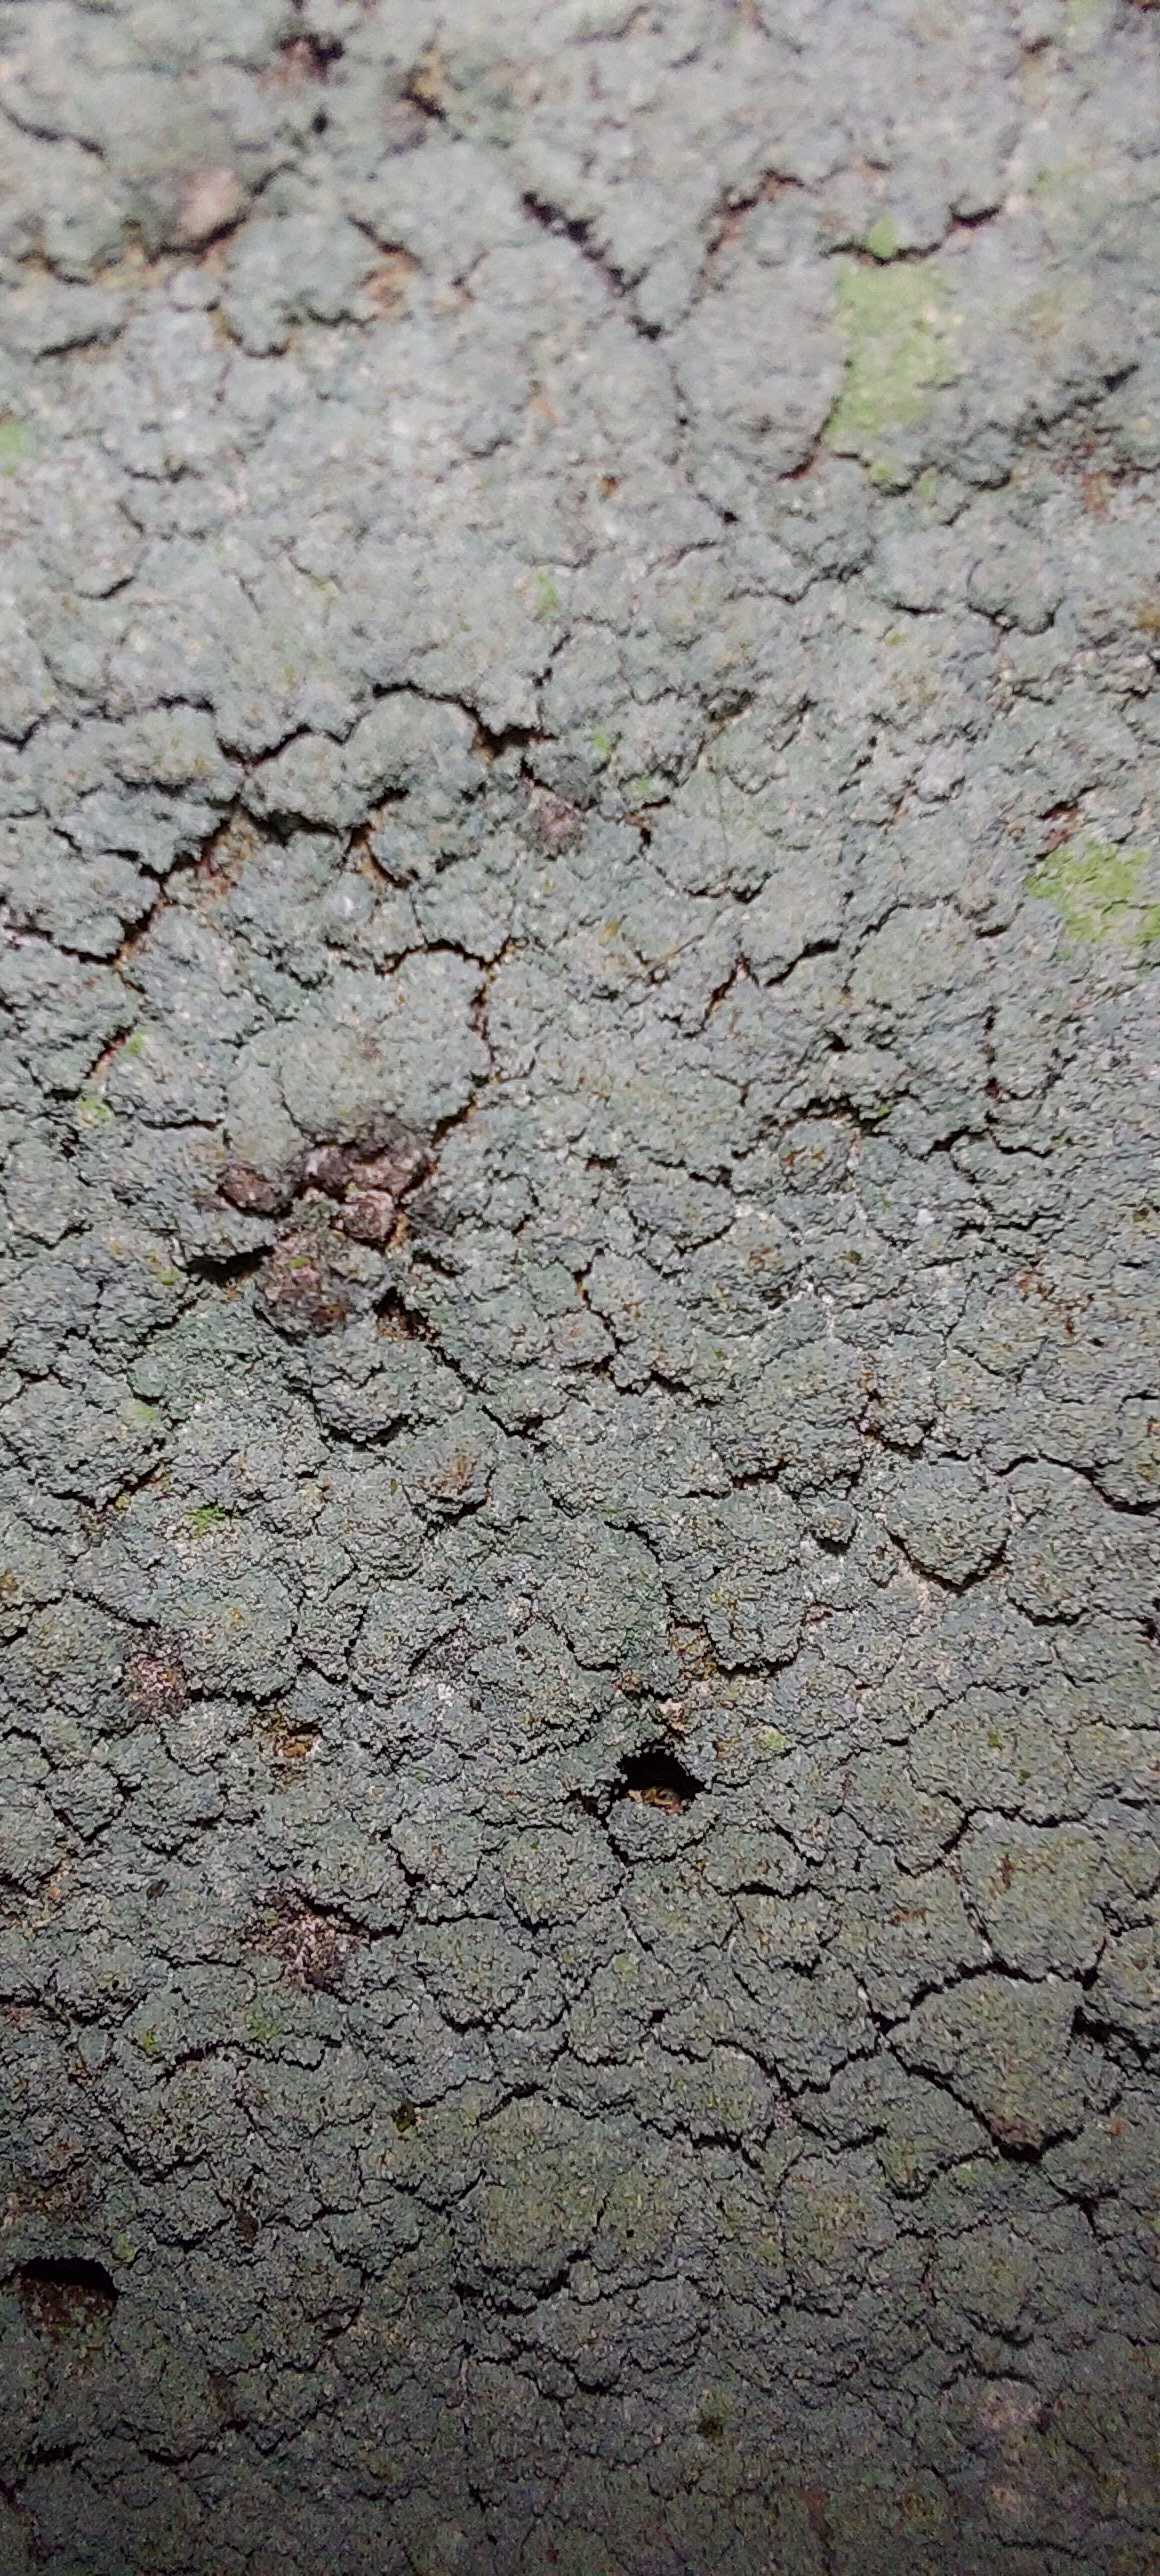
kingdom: Fungi
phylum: Ascomycota
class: Lecanoromycetes
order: Lecanorales
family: Stereocaulaceae
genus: Lepraria
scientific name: Lepraria
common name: støvlav
